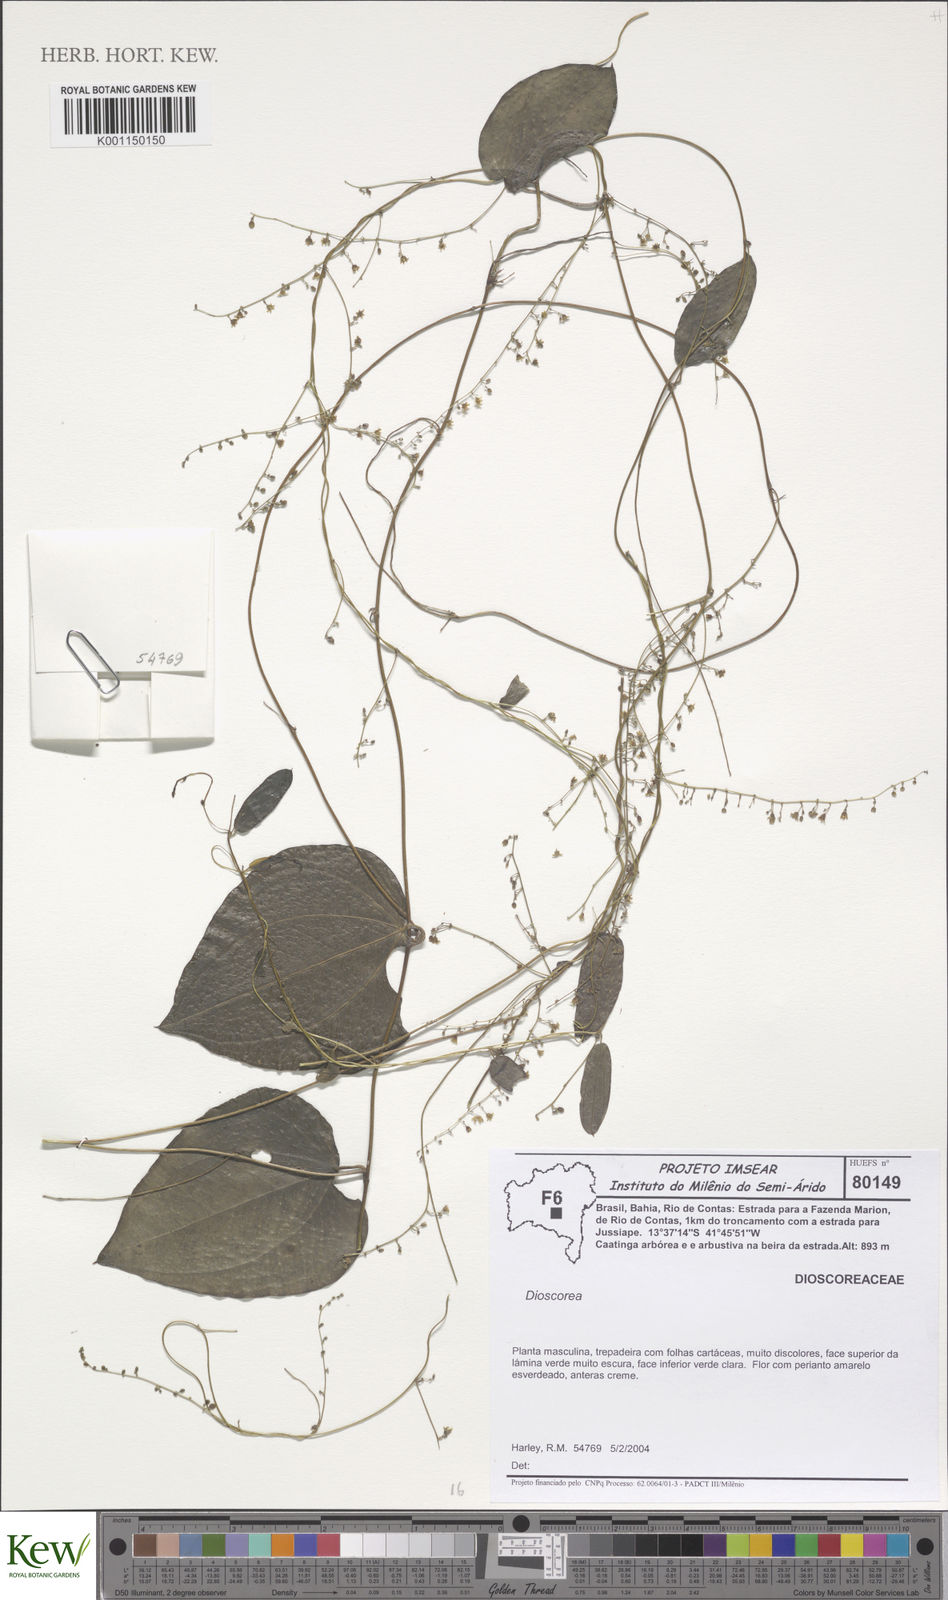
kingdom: Plantae
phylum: Tracheophyta
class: Liliopsida
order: Dioscoreales
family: Dioscoreaceae
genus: Dioscorea
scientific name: Dioscorea
